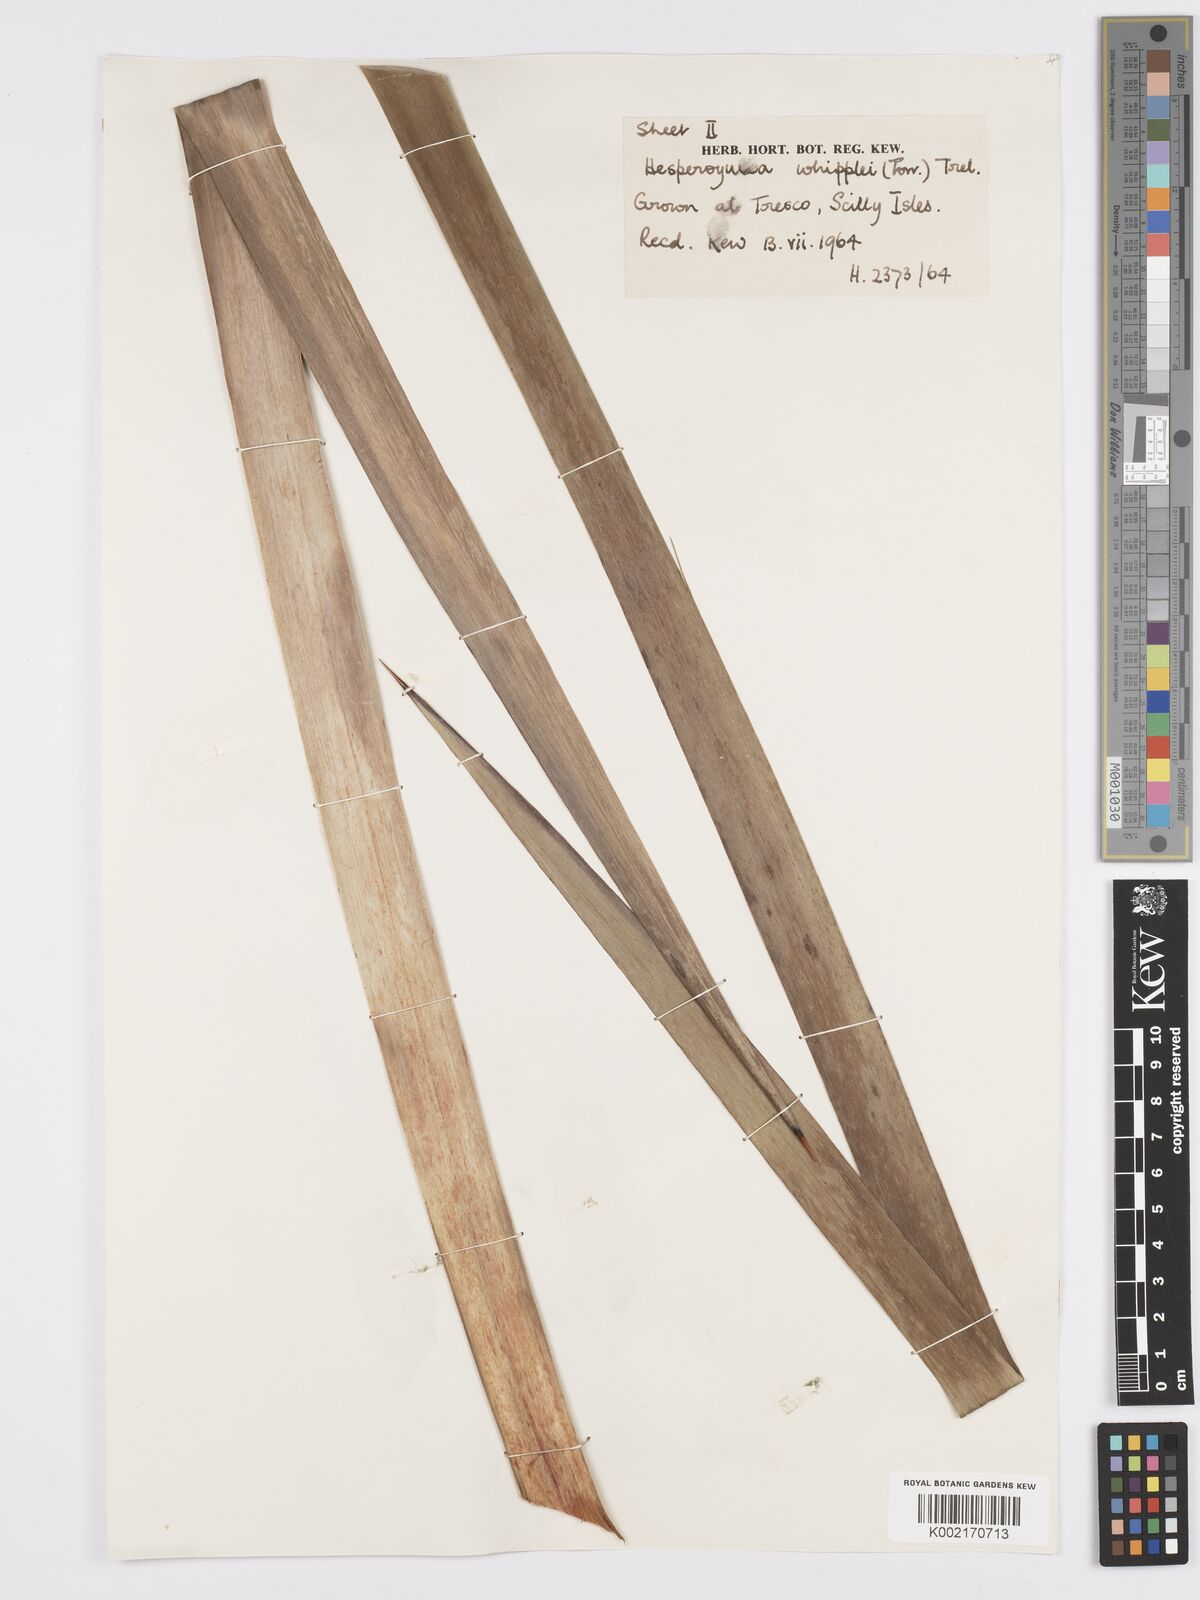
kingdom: Plantae
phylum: Tracheophyta
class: Liliopsida
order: Asparagales
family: Asparagaceae
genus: Hesperoyucca
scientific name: Hesperoyucca whipplei
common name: Our lord's-candle
